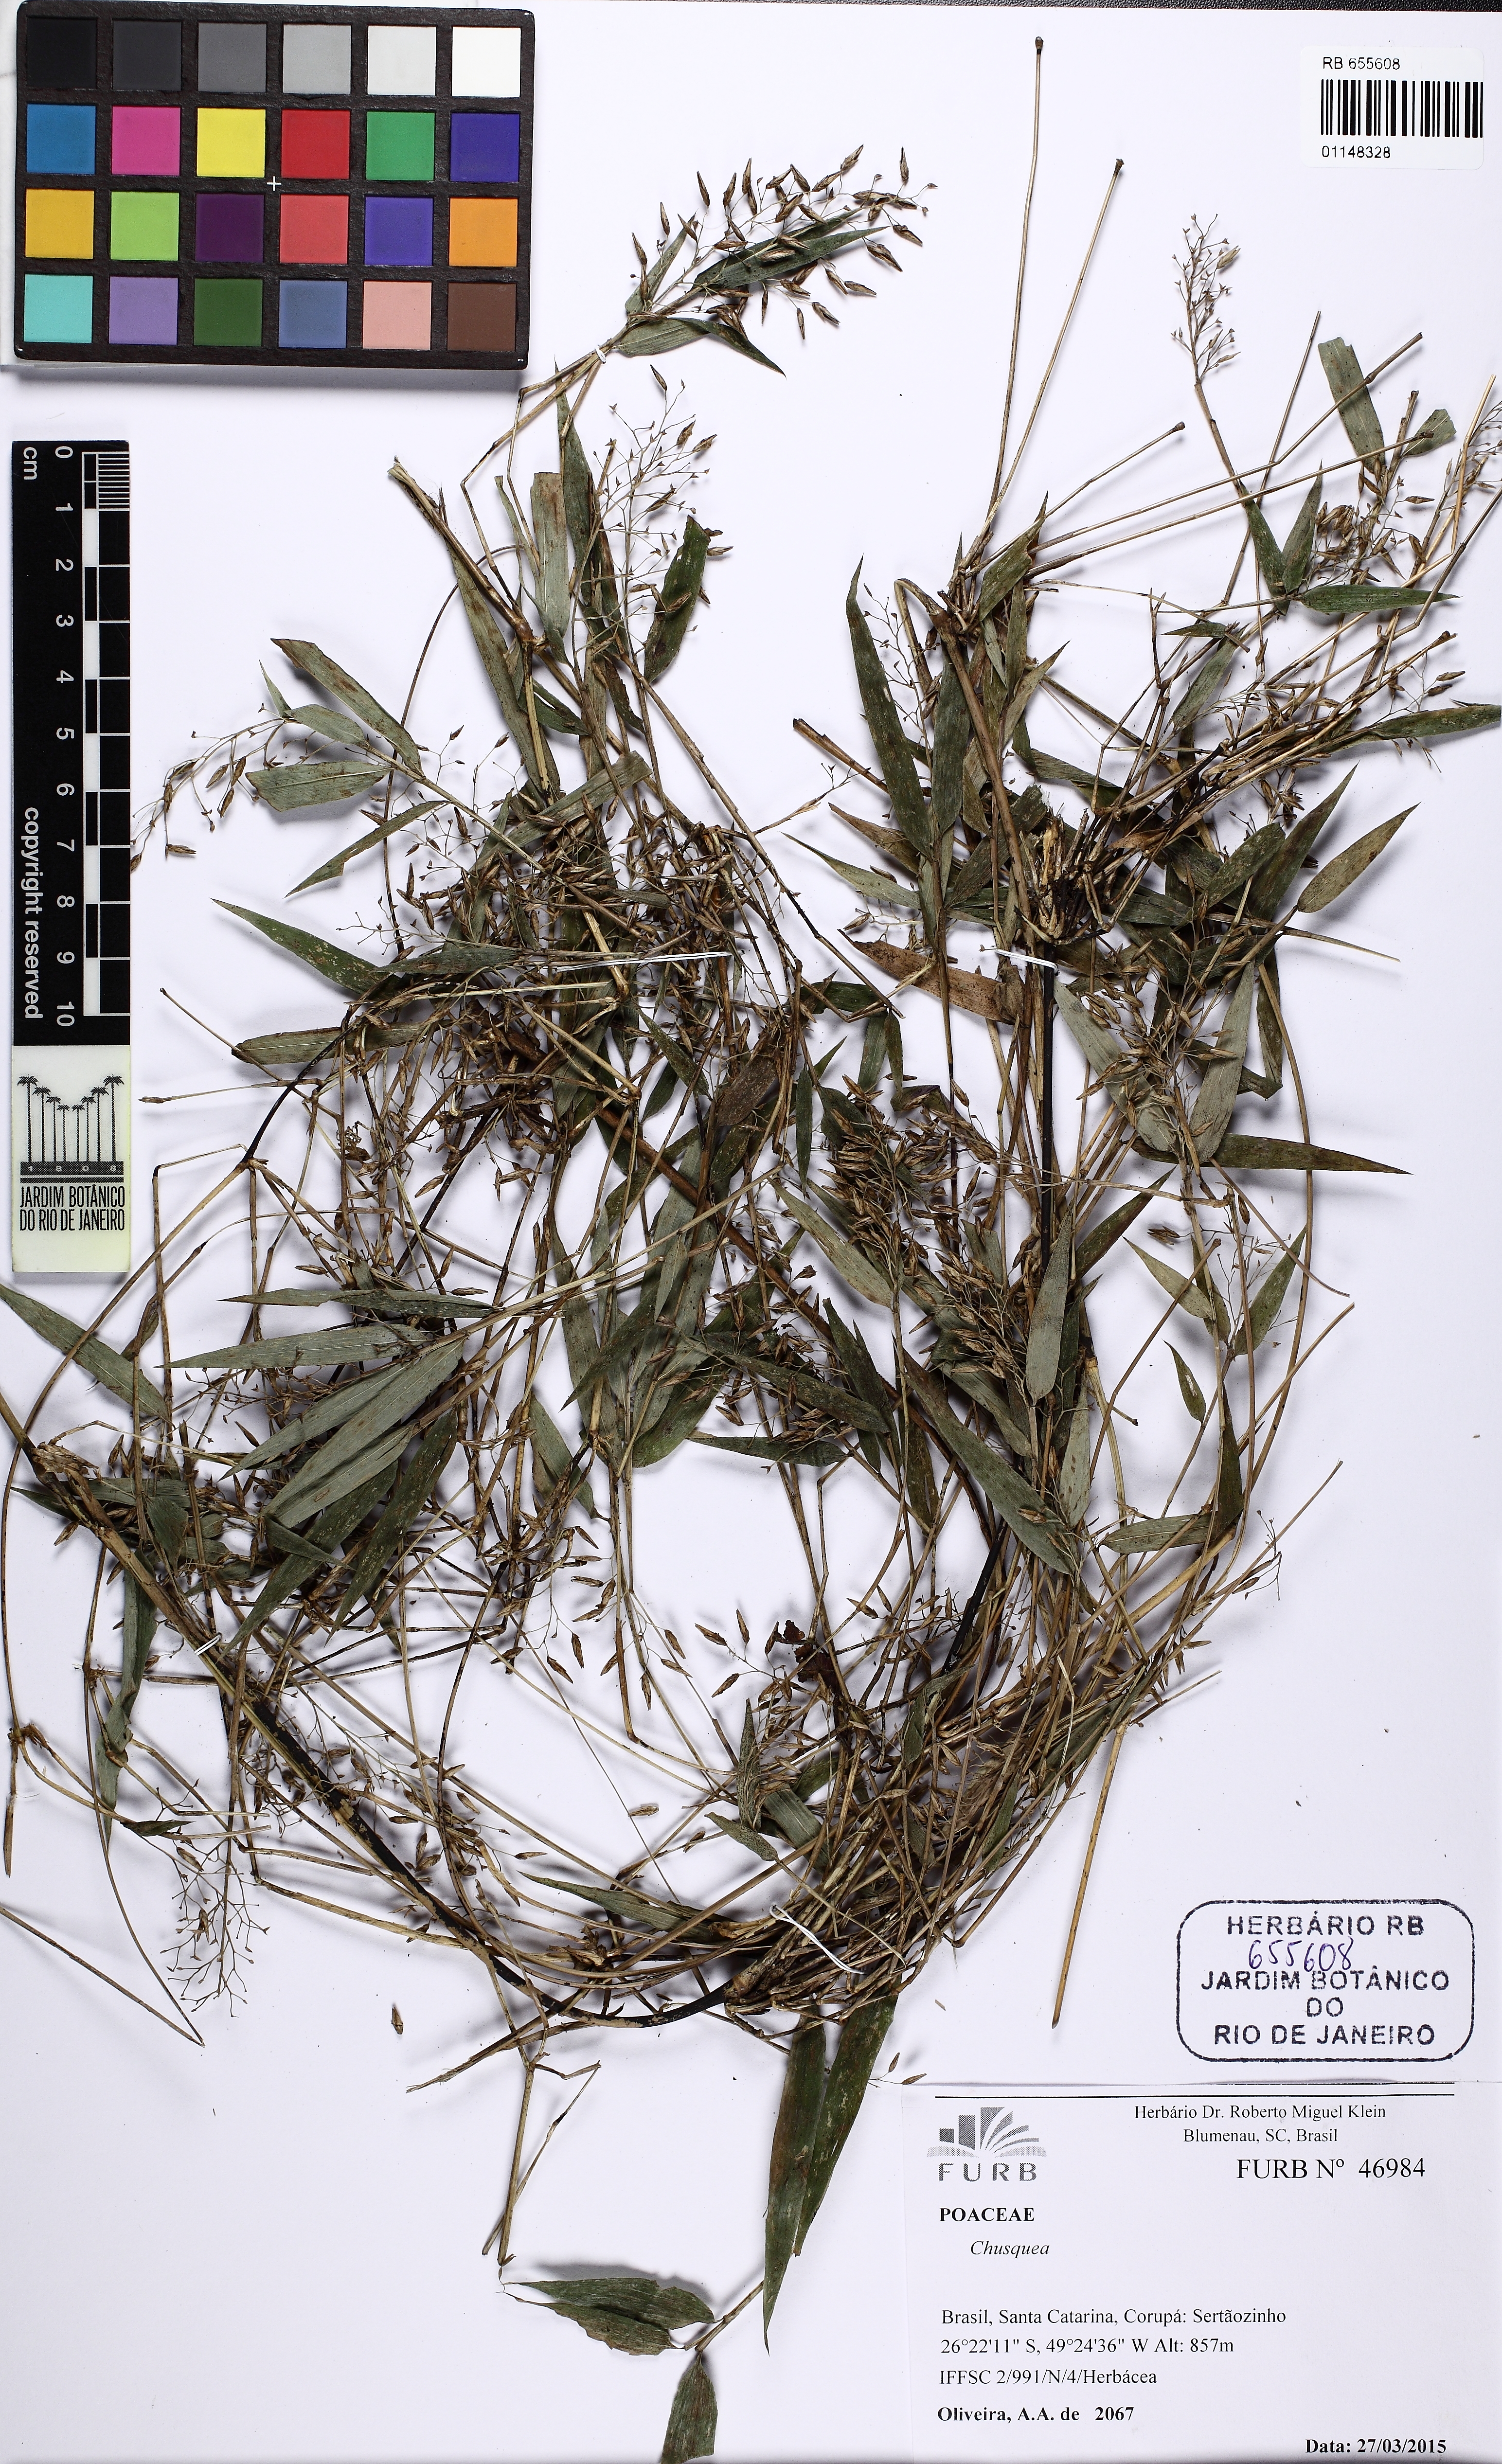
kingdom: Plantae
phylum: Tracheophyta
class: Liliopsida
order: Poales
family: Poaceae
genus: Chusquea
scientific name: Chusquea oligophylla
